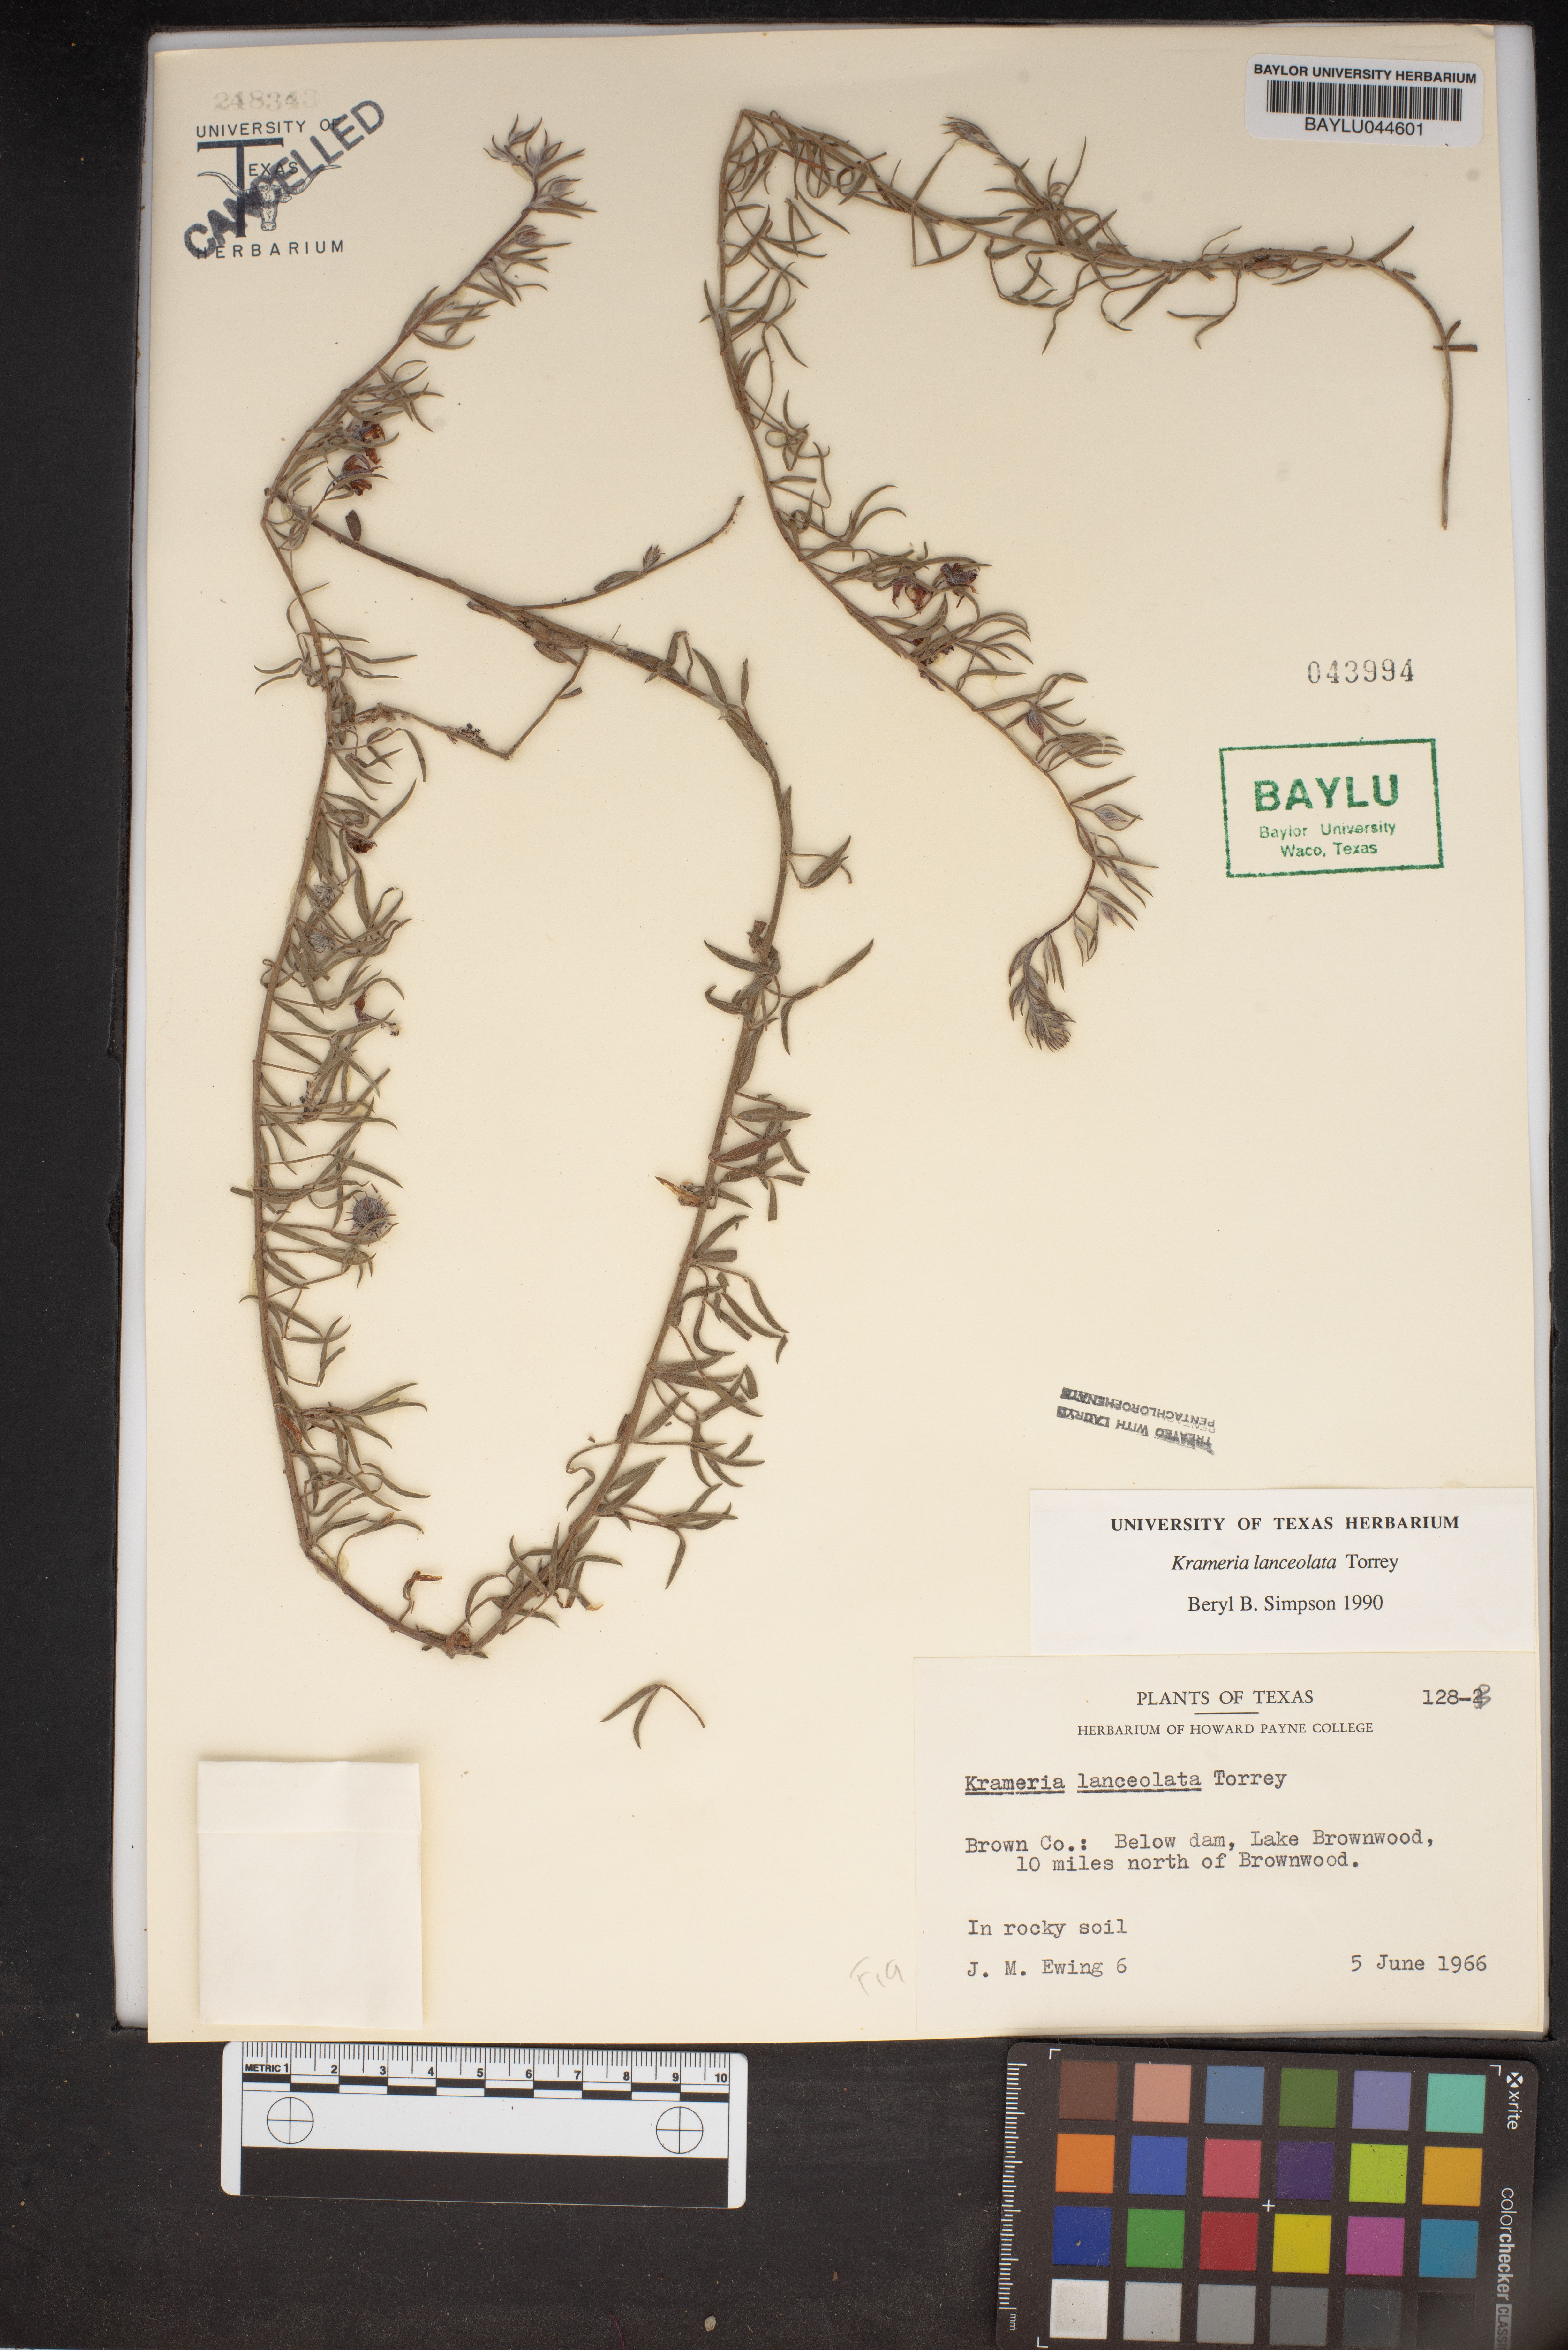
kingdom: Plantae
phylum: Tracheophyta
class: Magnoliopsida
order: Zygophyllales
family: Krameriaceae
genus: Krameria
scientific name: Krameria lanceolata
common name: Ratany
